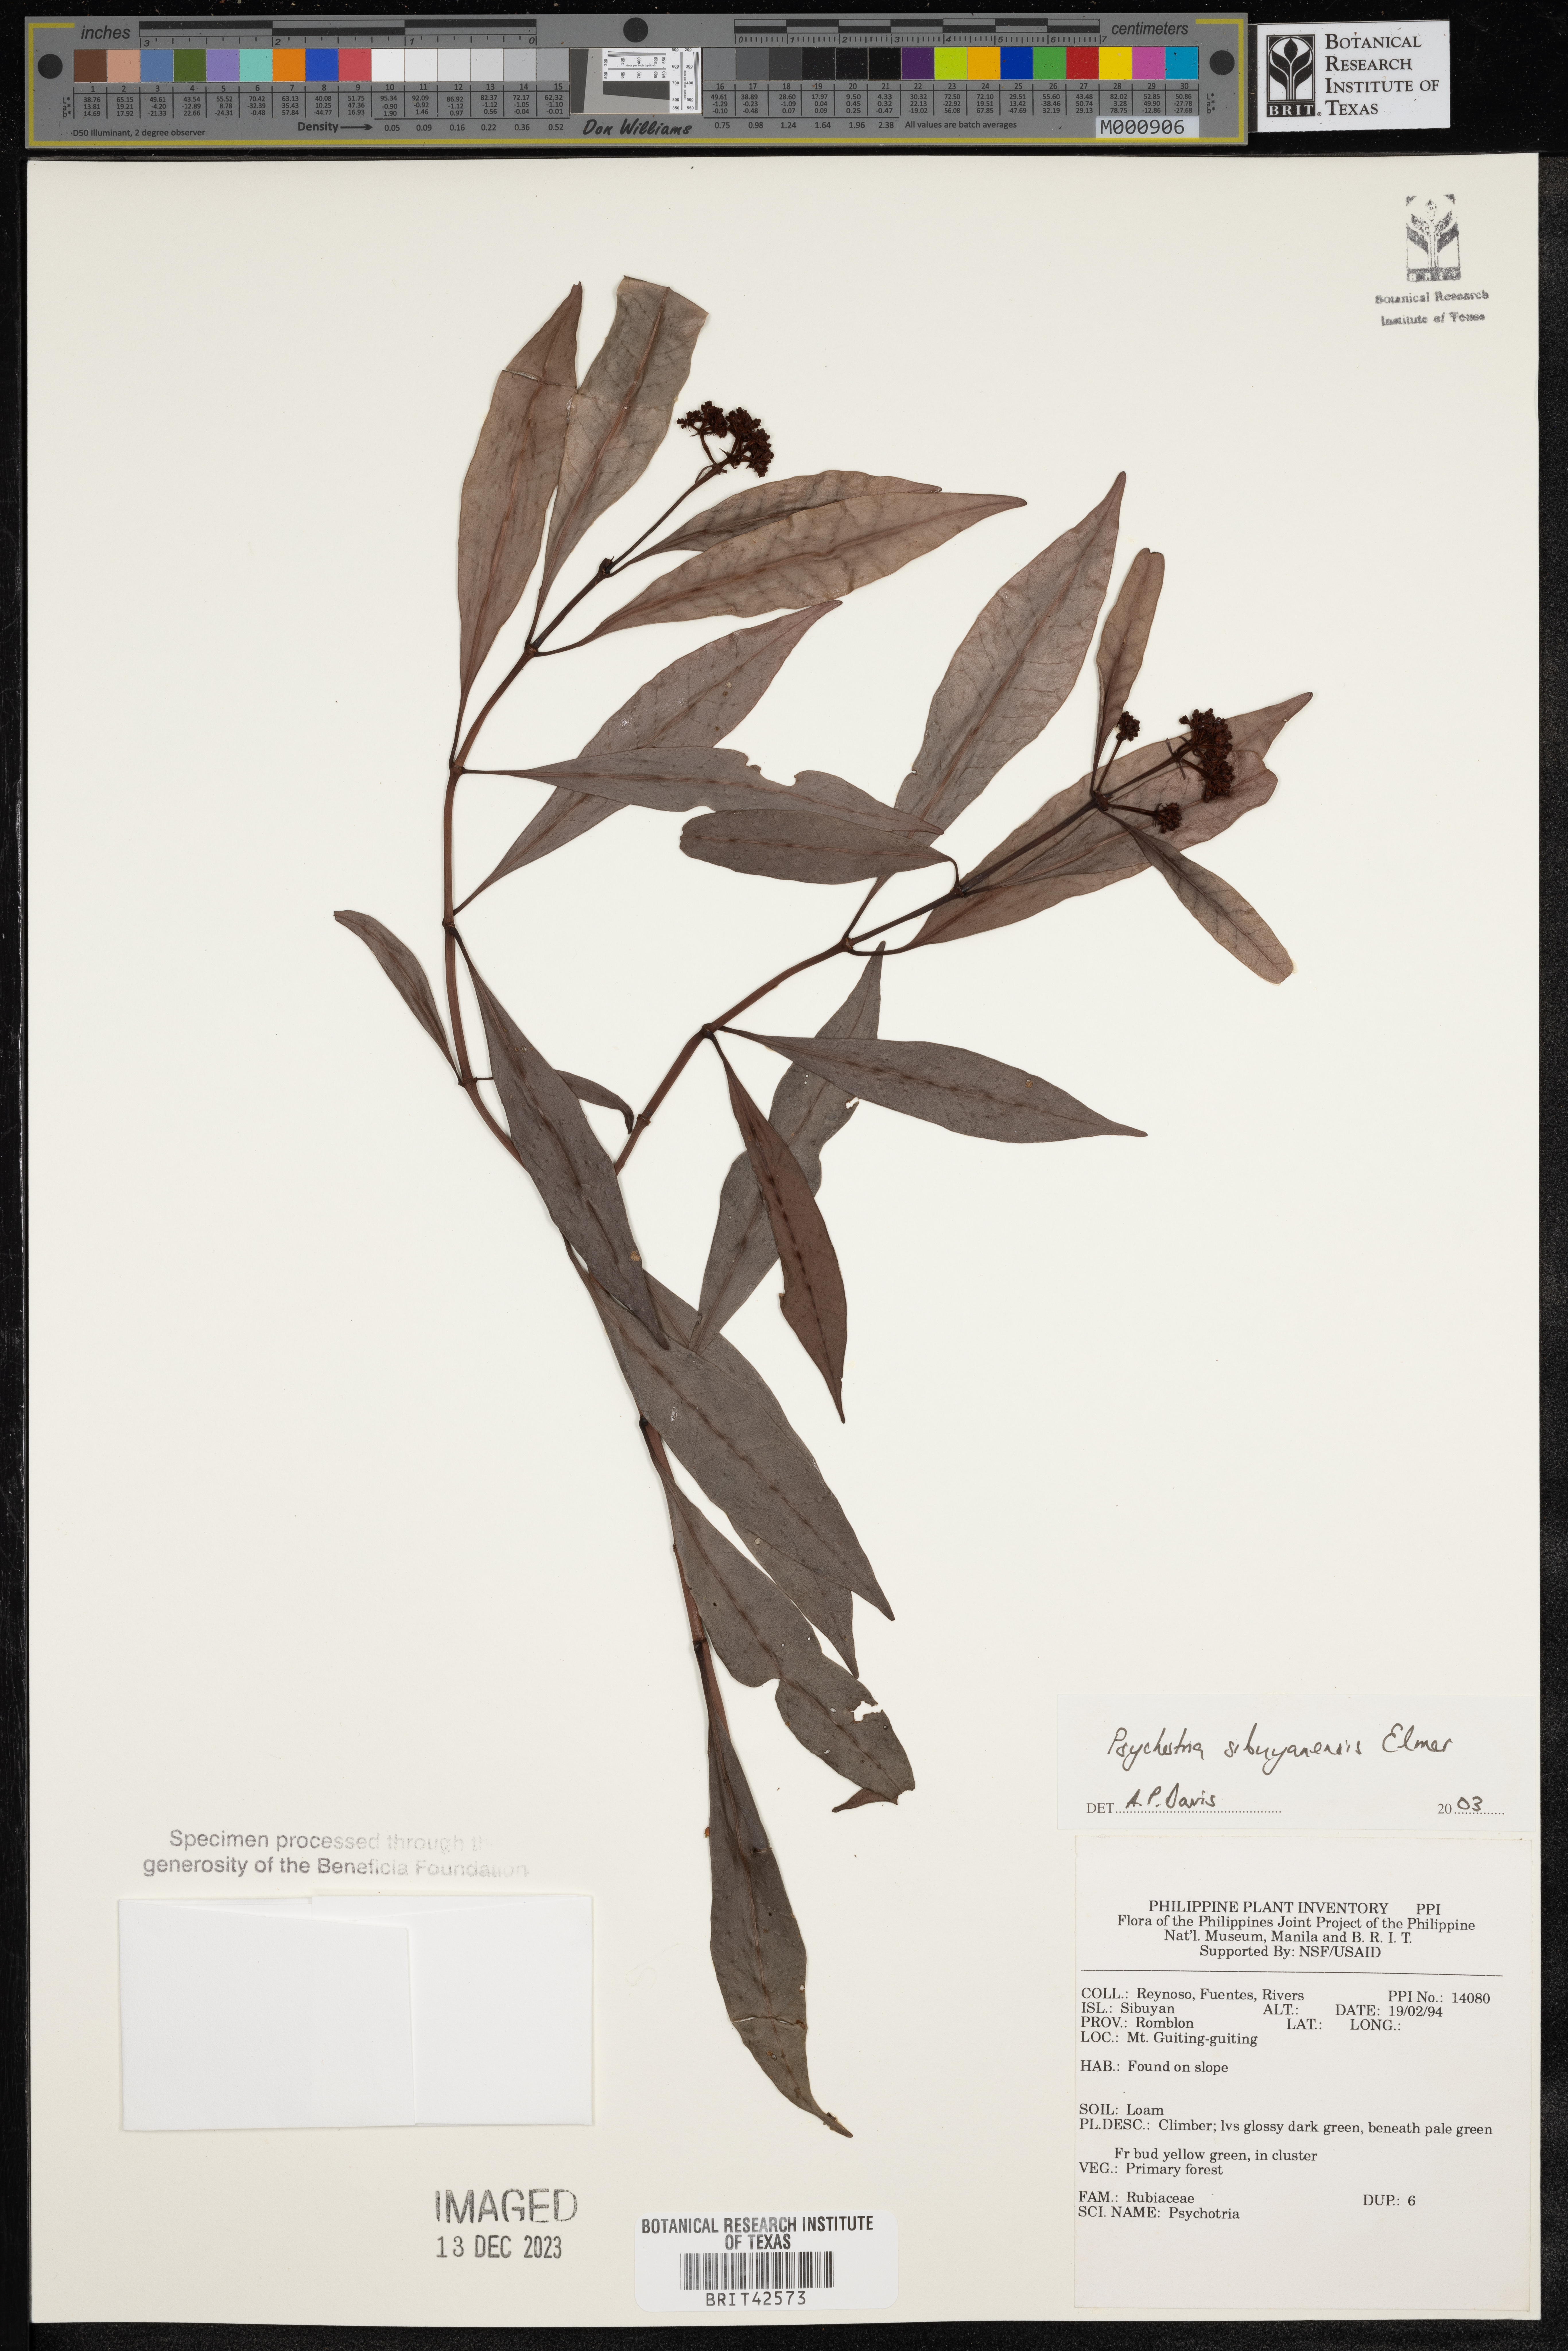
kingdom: Plantae
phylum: Tracheophyta
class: Magnoliopsida
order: Gentianales
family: Rubiaceae
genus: Psychotria
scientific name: Psychotria sibuyanensis
